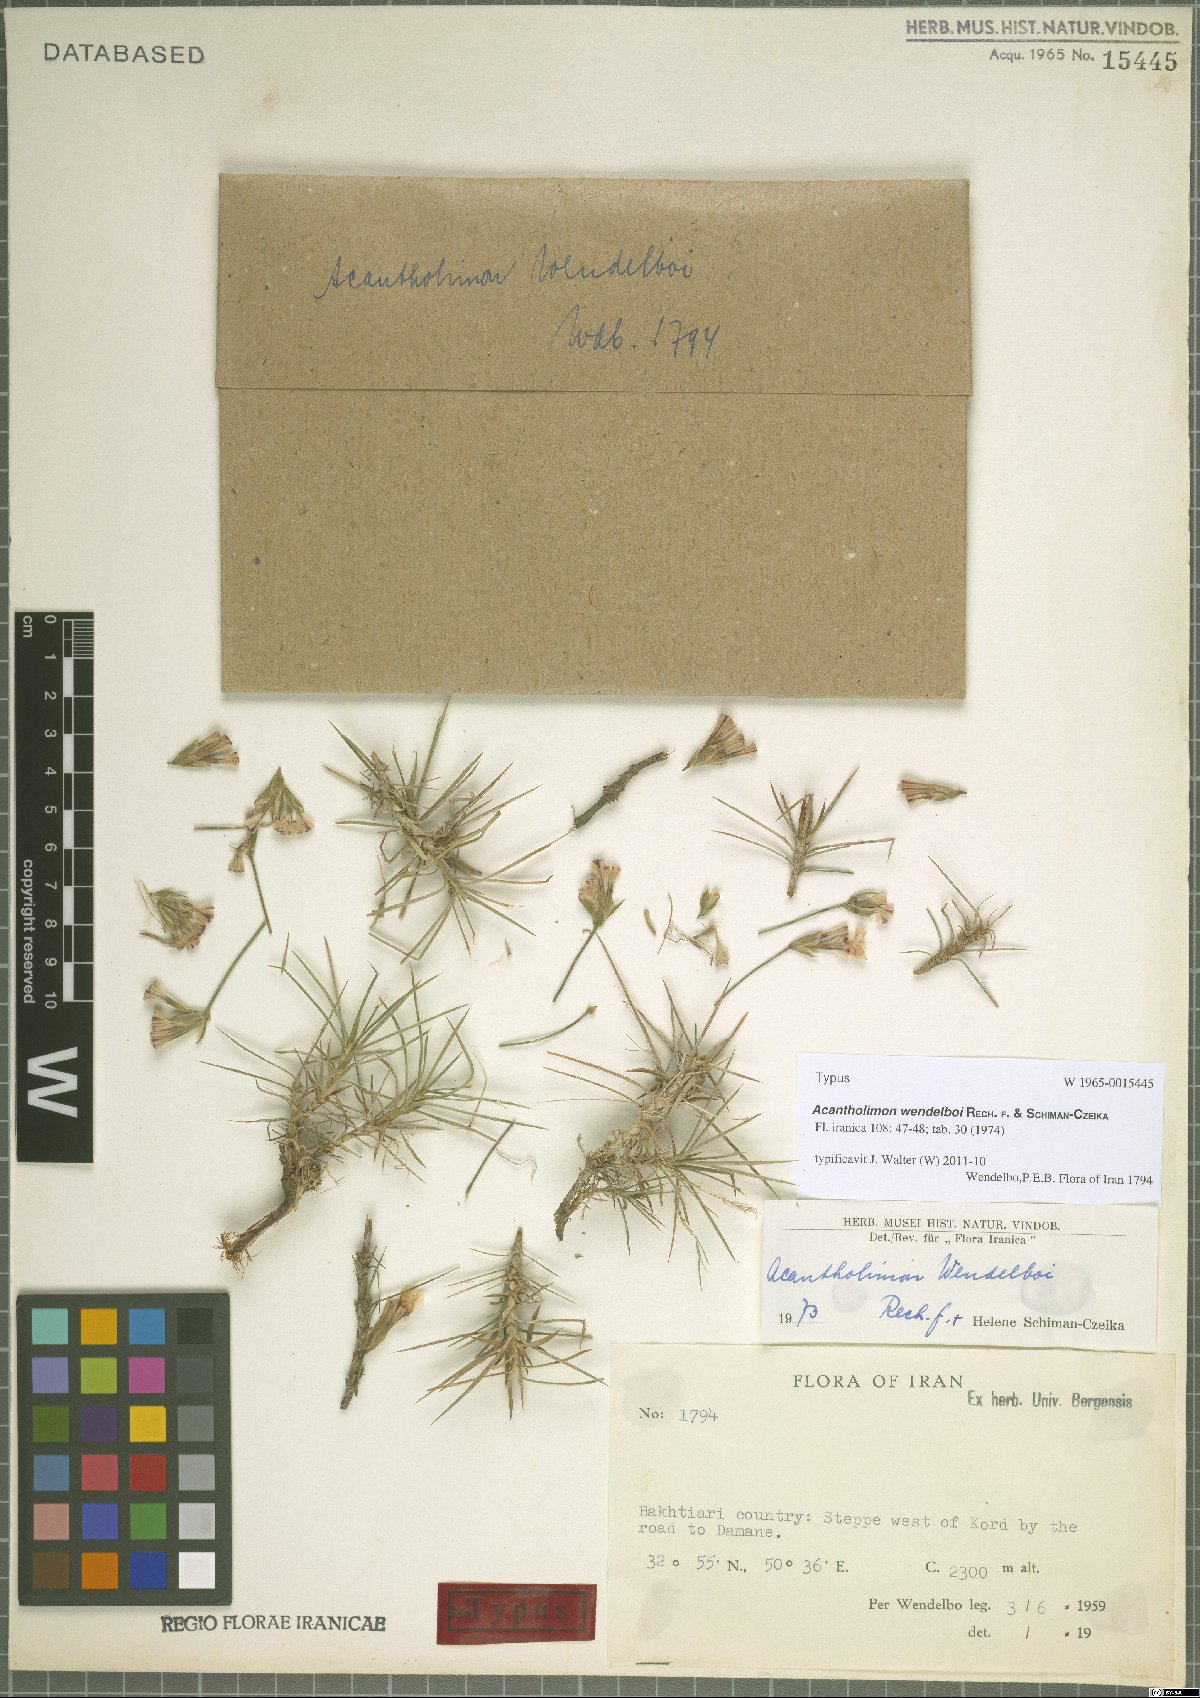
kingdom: Plantae
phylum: Tracheophyta
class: Magnoliopsida
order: Caryophyllales
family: Plumbaginaceae
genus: Acantholimon
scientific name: Acantholimon wendelboi
